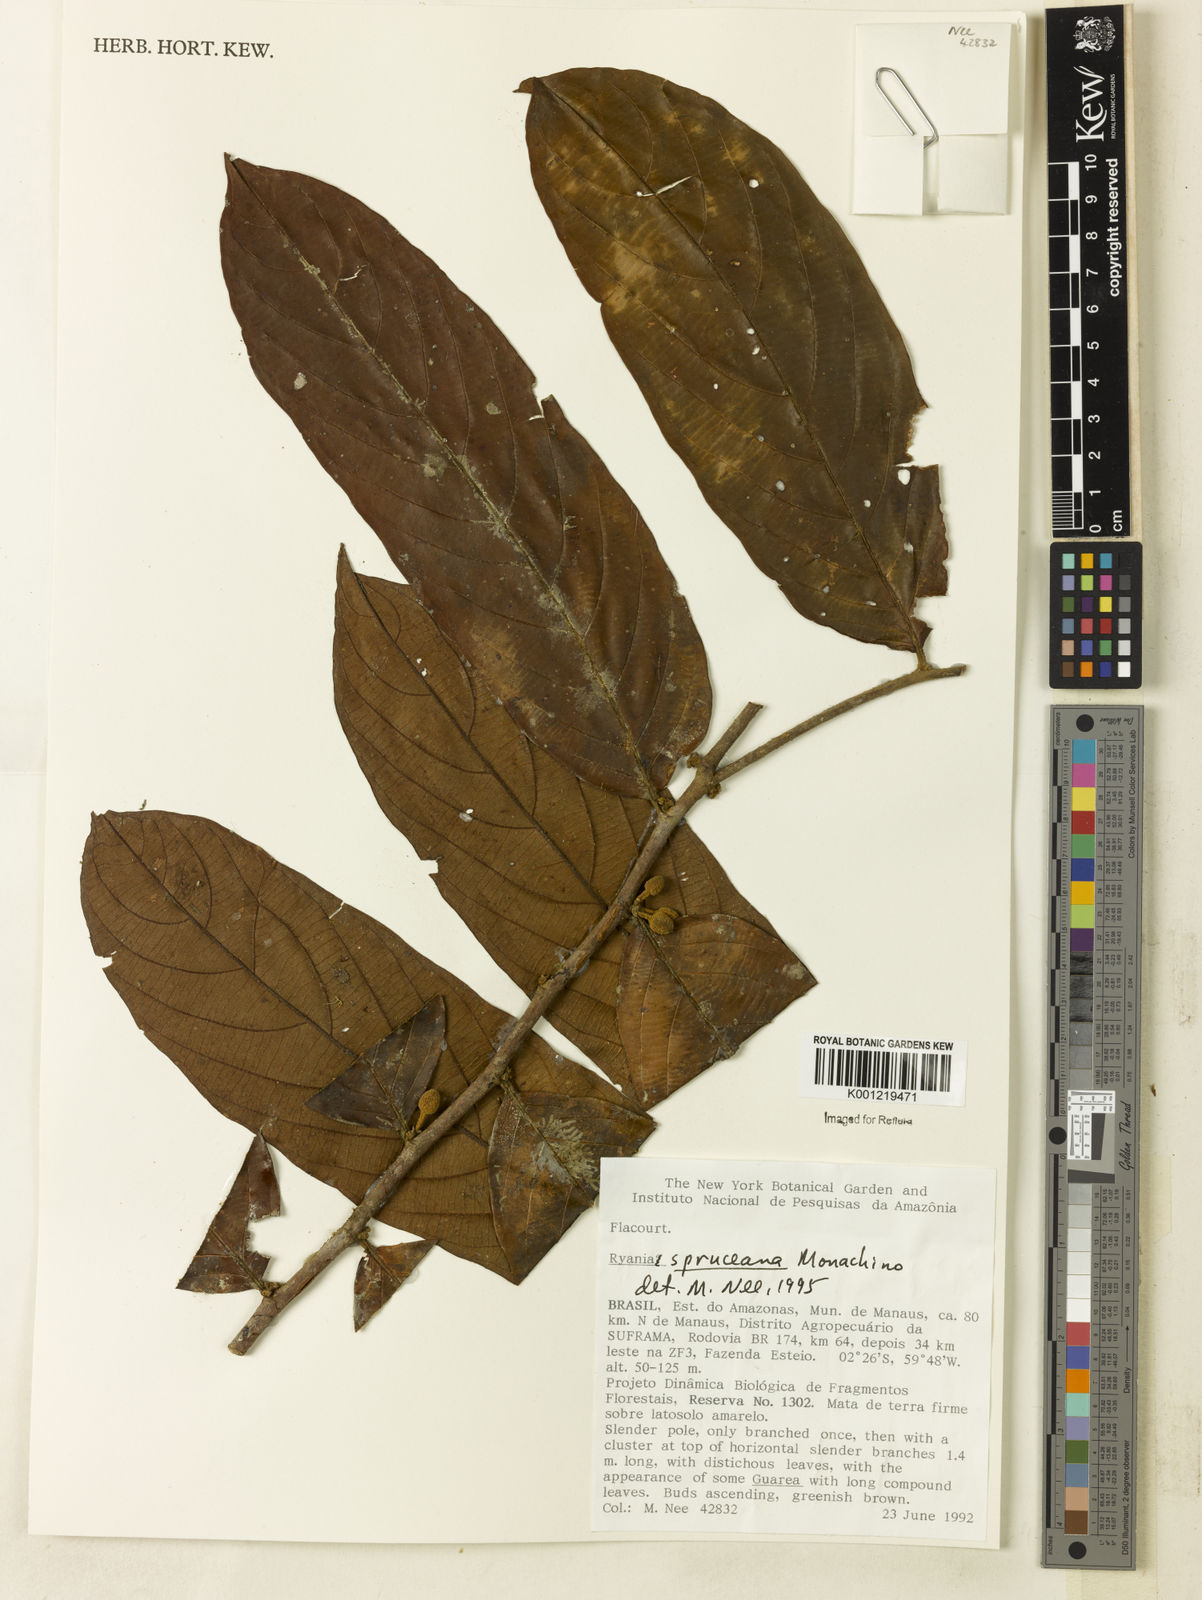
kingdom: Plantae
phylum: Tracheophyta
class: Magnoliopsida
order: Malpighiales
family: Salicaceae
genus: Ryania
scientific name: Ryania spruceana
